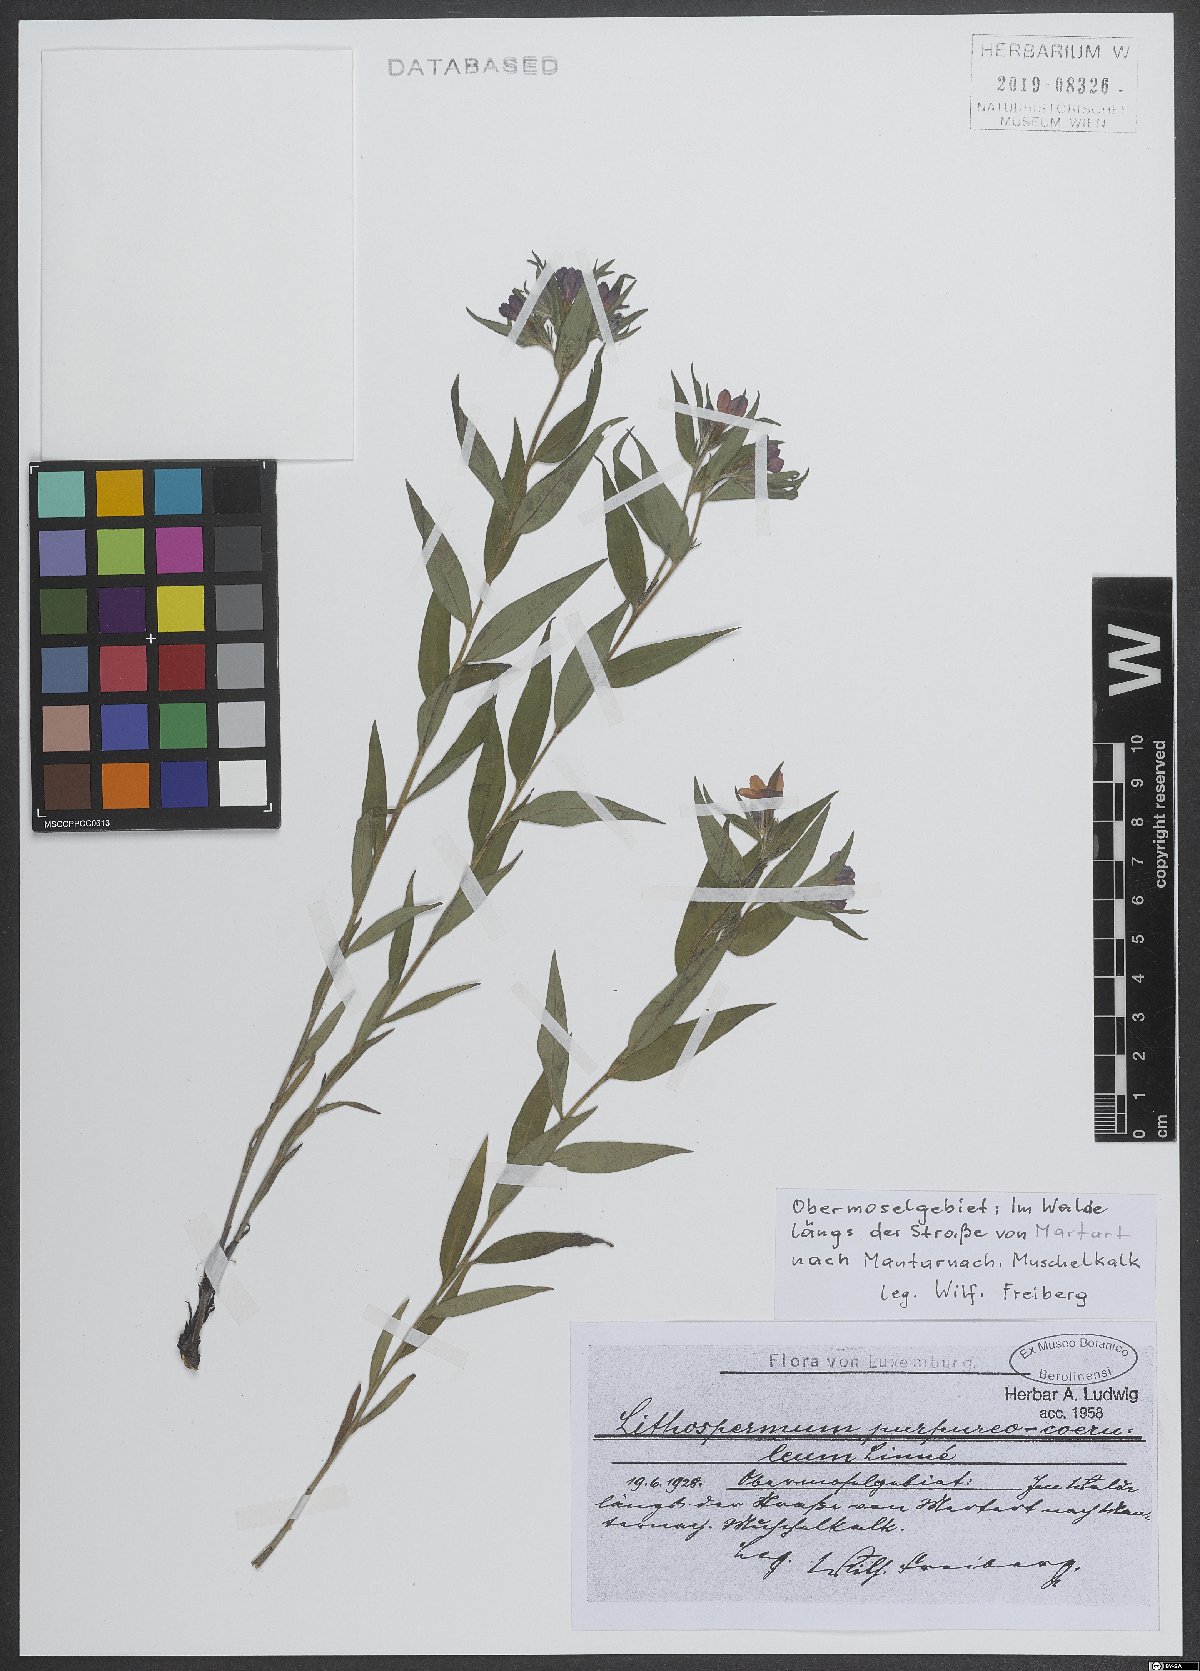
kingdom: Plantae
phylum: Tracheophyta
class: Magnoliopsida
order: Boraginales
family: Boraginaceae
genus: Aegonychon
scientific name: Aegonychon purpurocaeruleum
